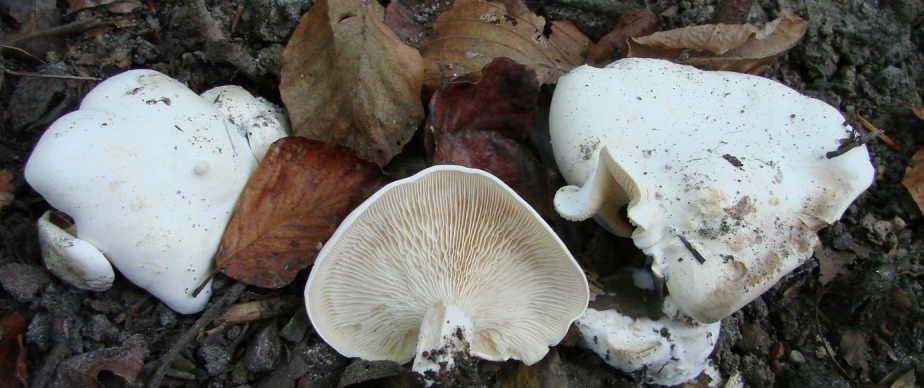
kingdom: Fungi
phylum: Basidiomycota
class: Agaricomycetes
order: Agaricales
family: Tricholomataceae
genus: Clitocybe
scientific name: Clitocybe nebularis
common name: tåge-tragthat
